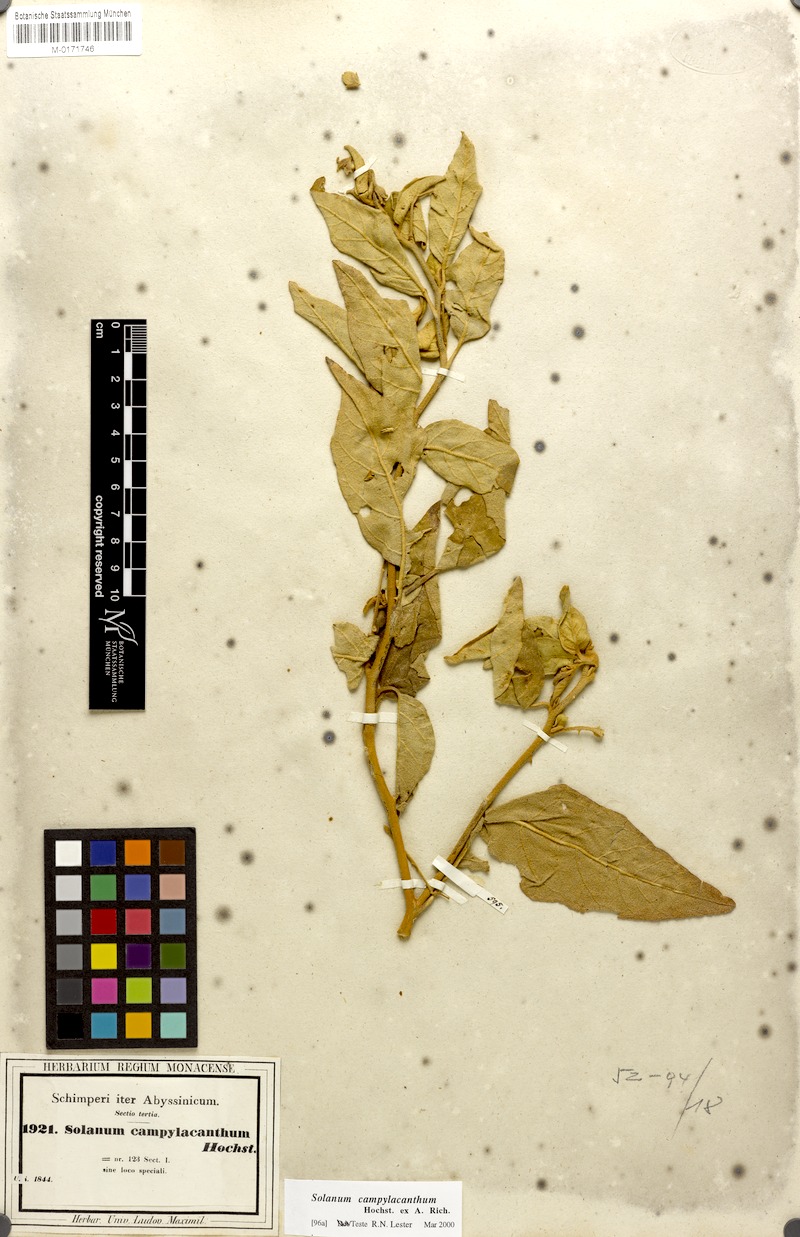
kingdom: Plantae
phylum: Tracheophyta
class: Magnoliopsida
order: Solanales
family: Solanaceae
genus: Solanum
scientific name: Solanum campylacanthum
